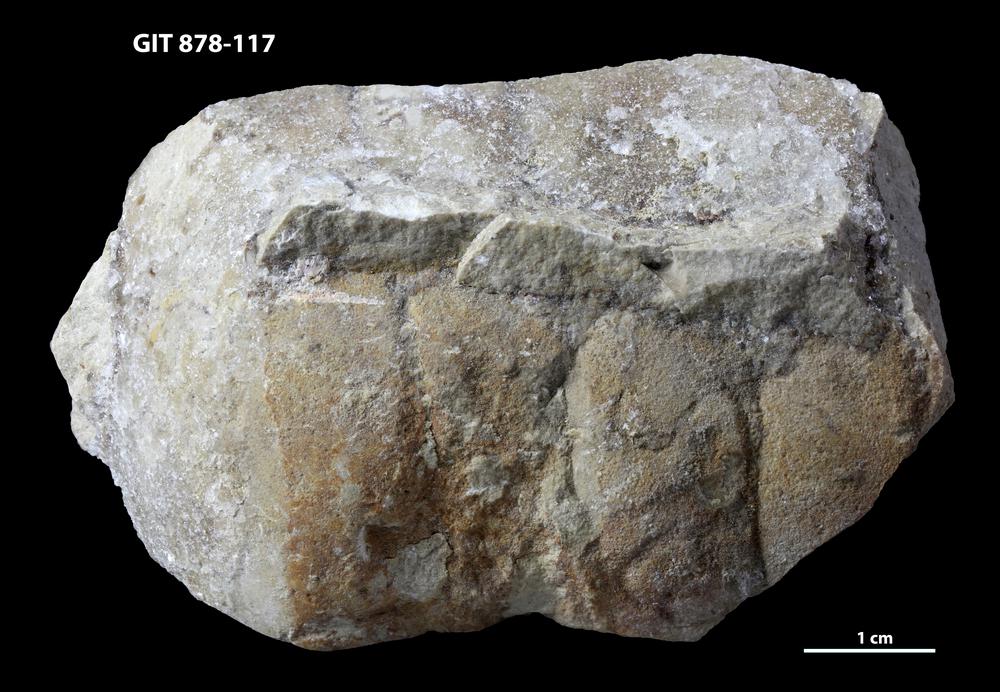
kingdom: Animalia
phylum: Mollusca
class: Cephalopoda
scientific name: Cephalopoda
